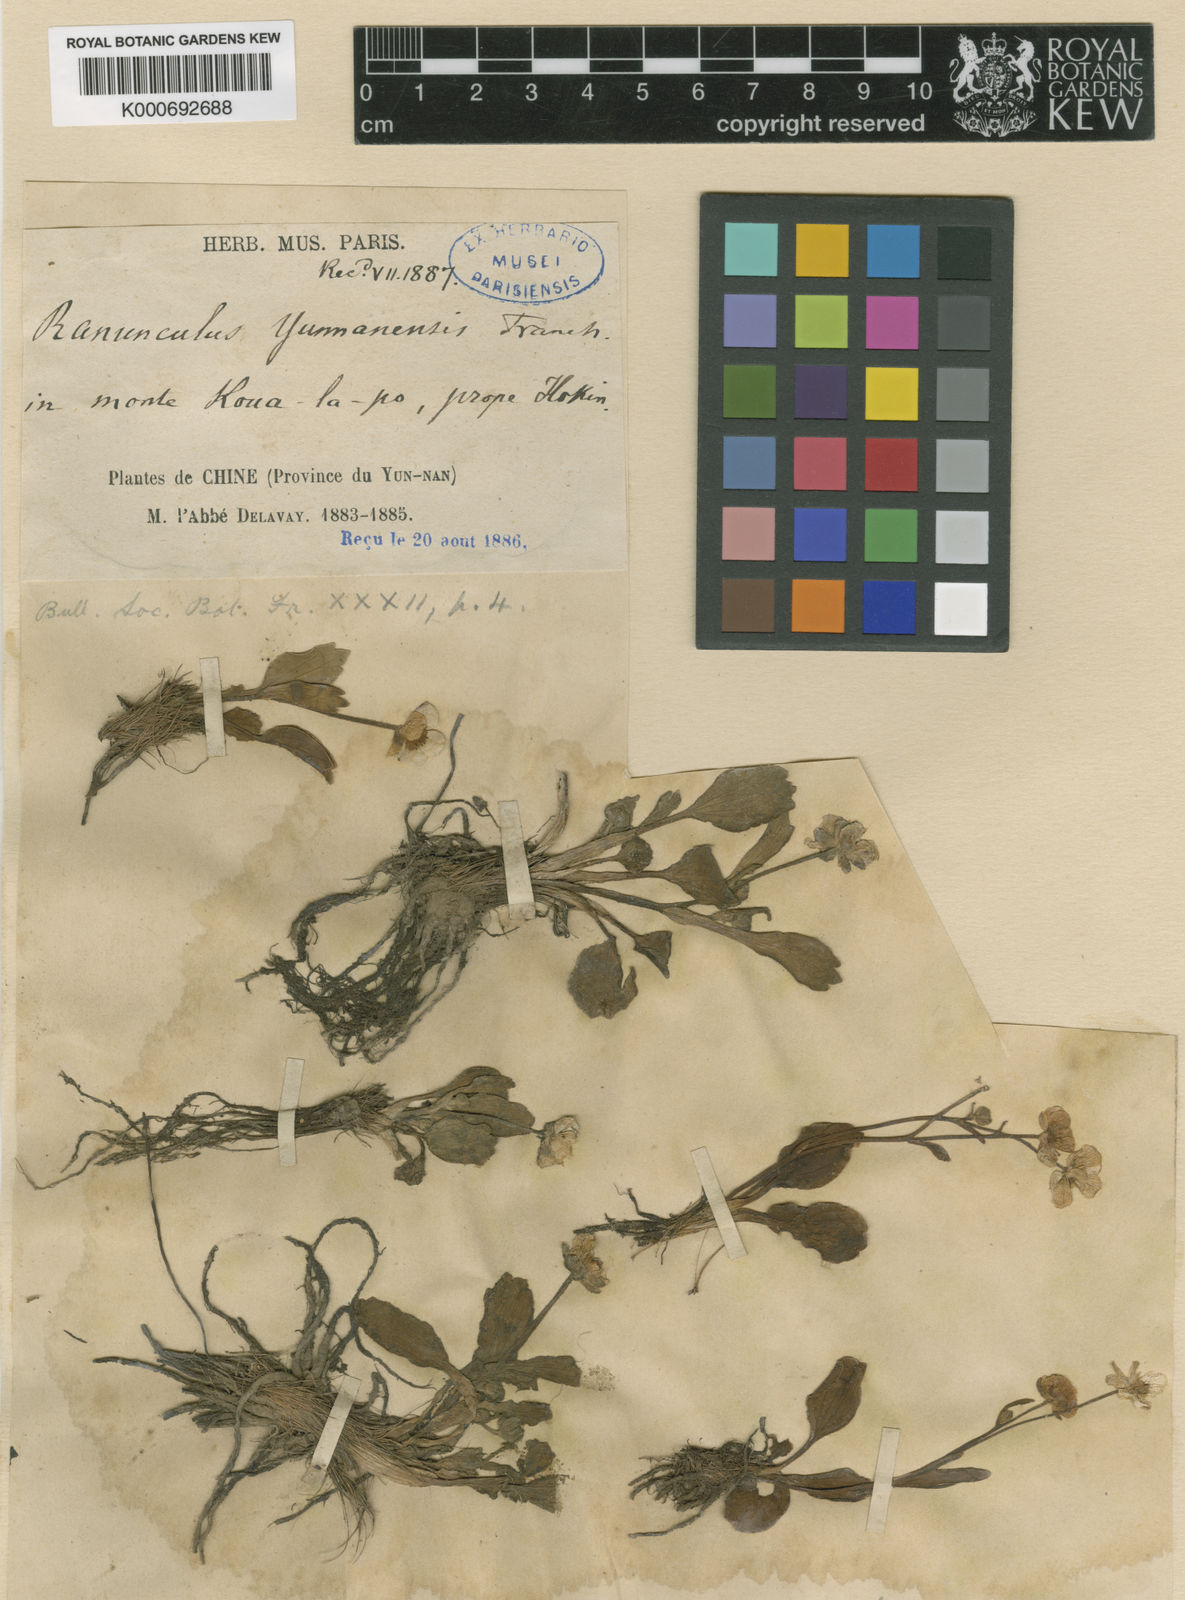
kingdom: Plantae
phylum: Tracheophyta
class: Magnoliopsida
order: Ranunculales
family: Ranunculaceae
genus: Ranunculus
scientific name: Ranunculus yunnanensis
